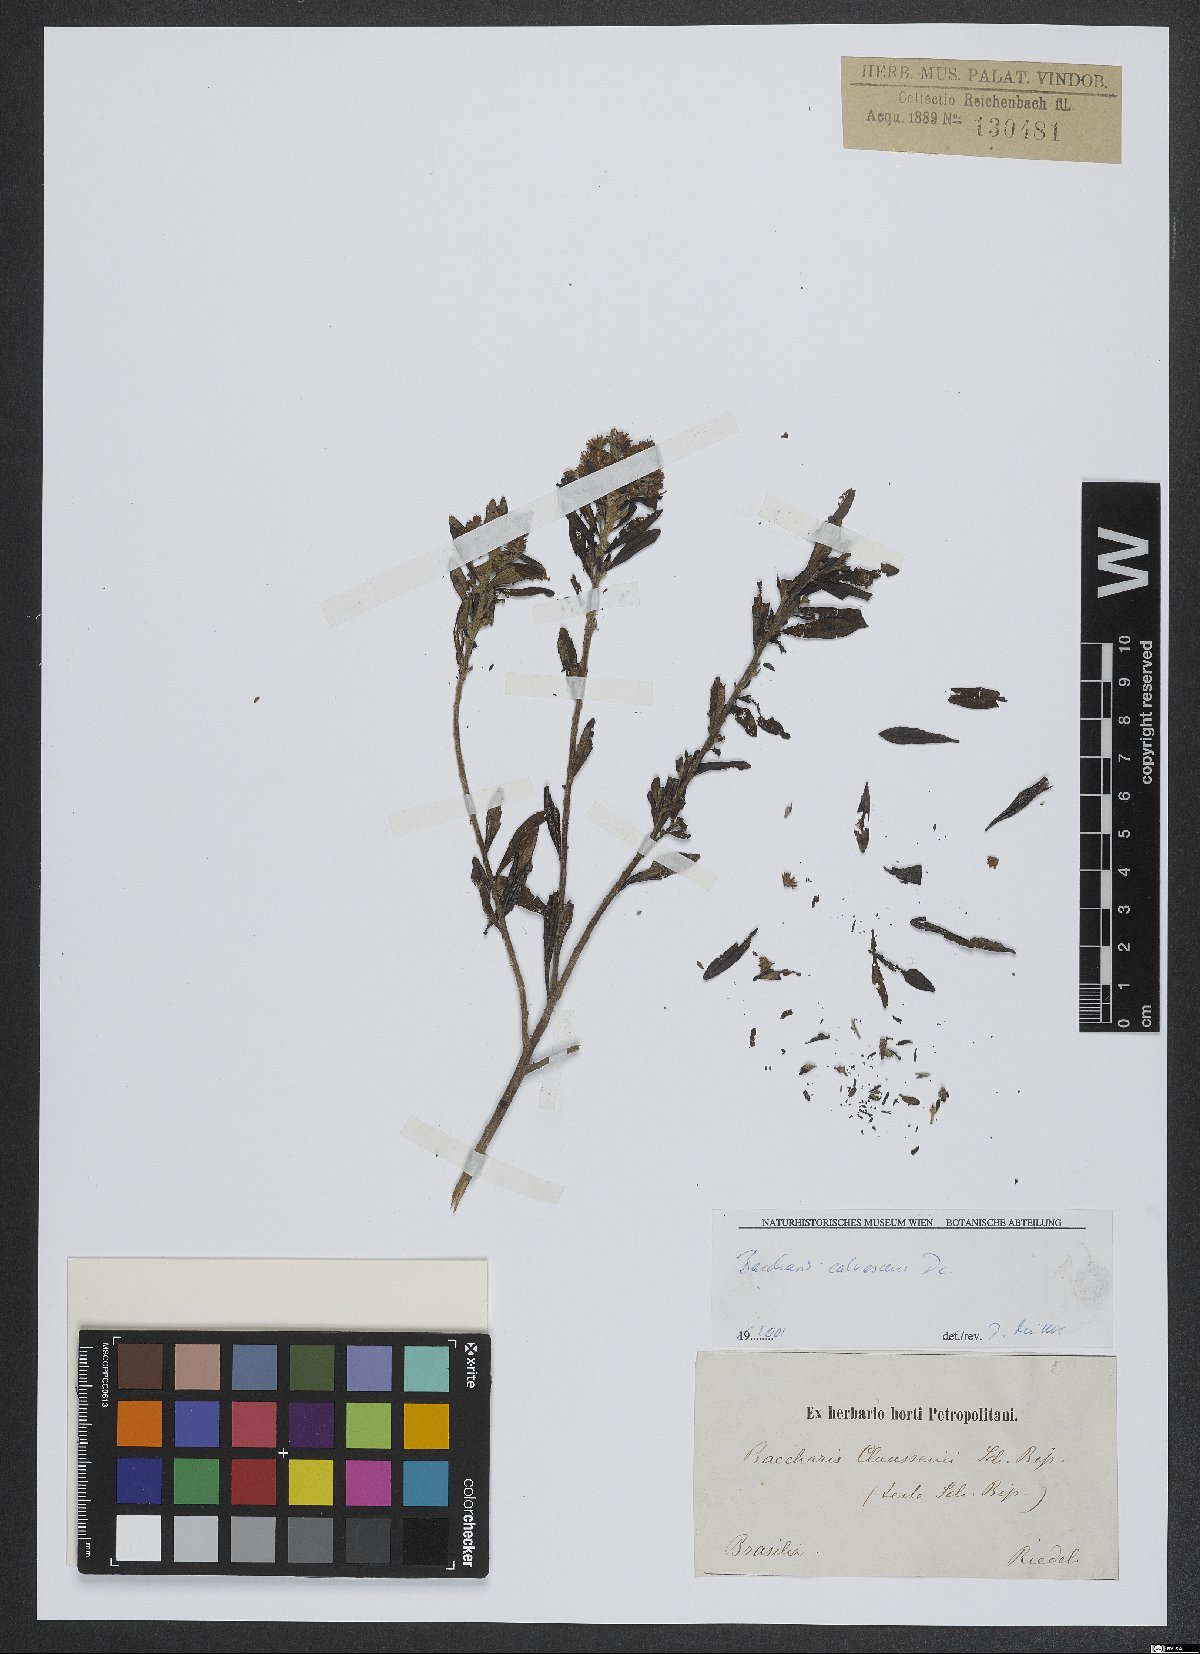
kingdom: Plantae
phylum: Tracheophyta
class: Magnoliopsida
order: Asterales
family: Asteraceae
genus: Baccharis
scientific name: Baccharis calvescens
